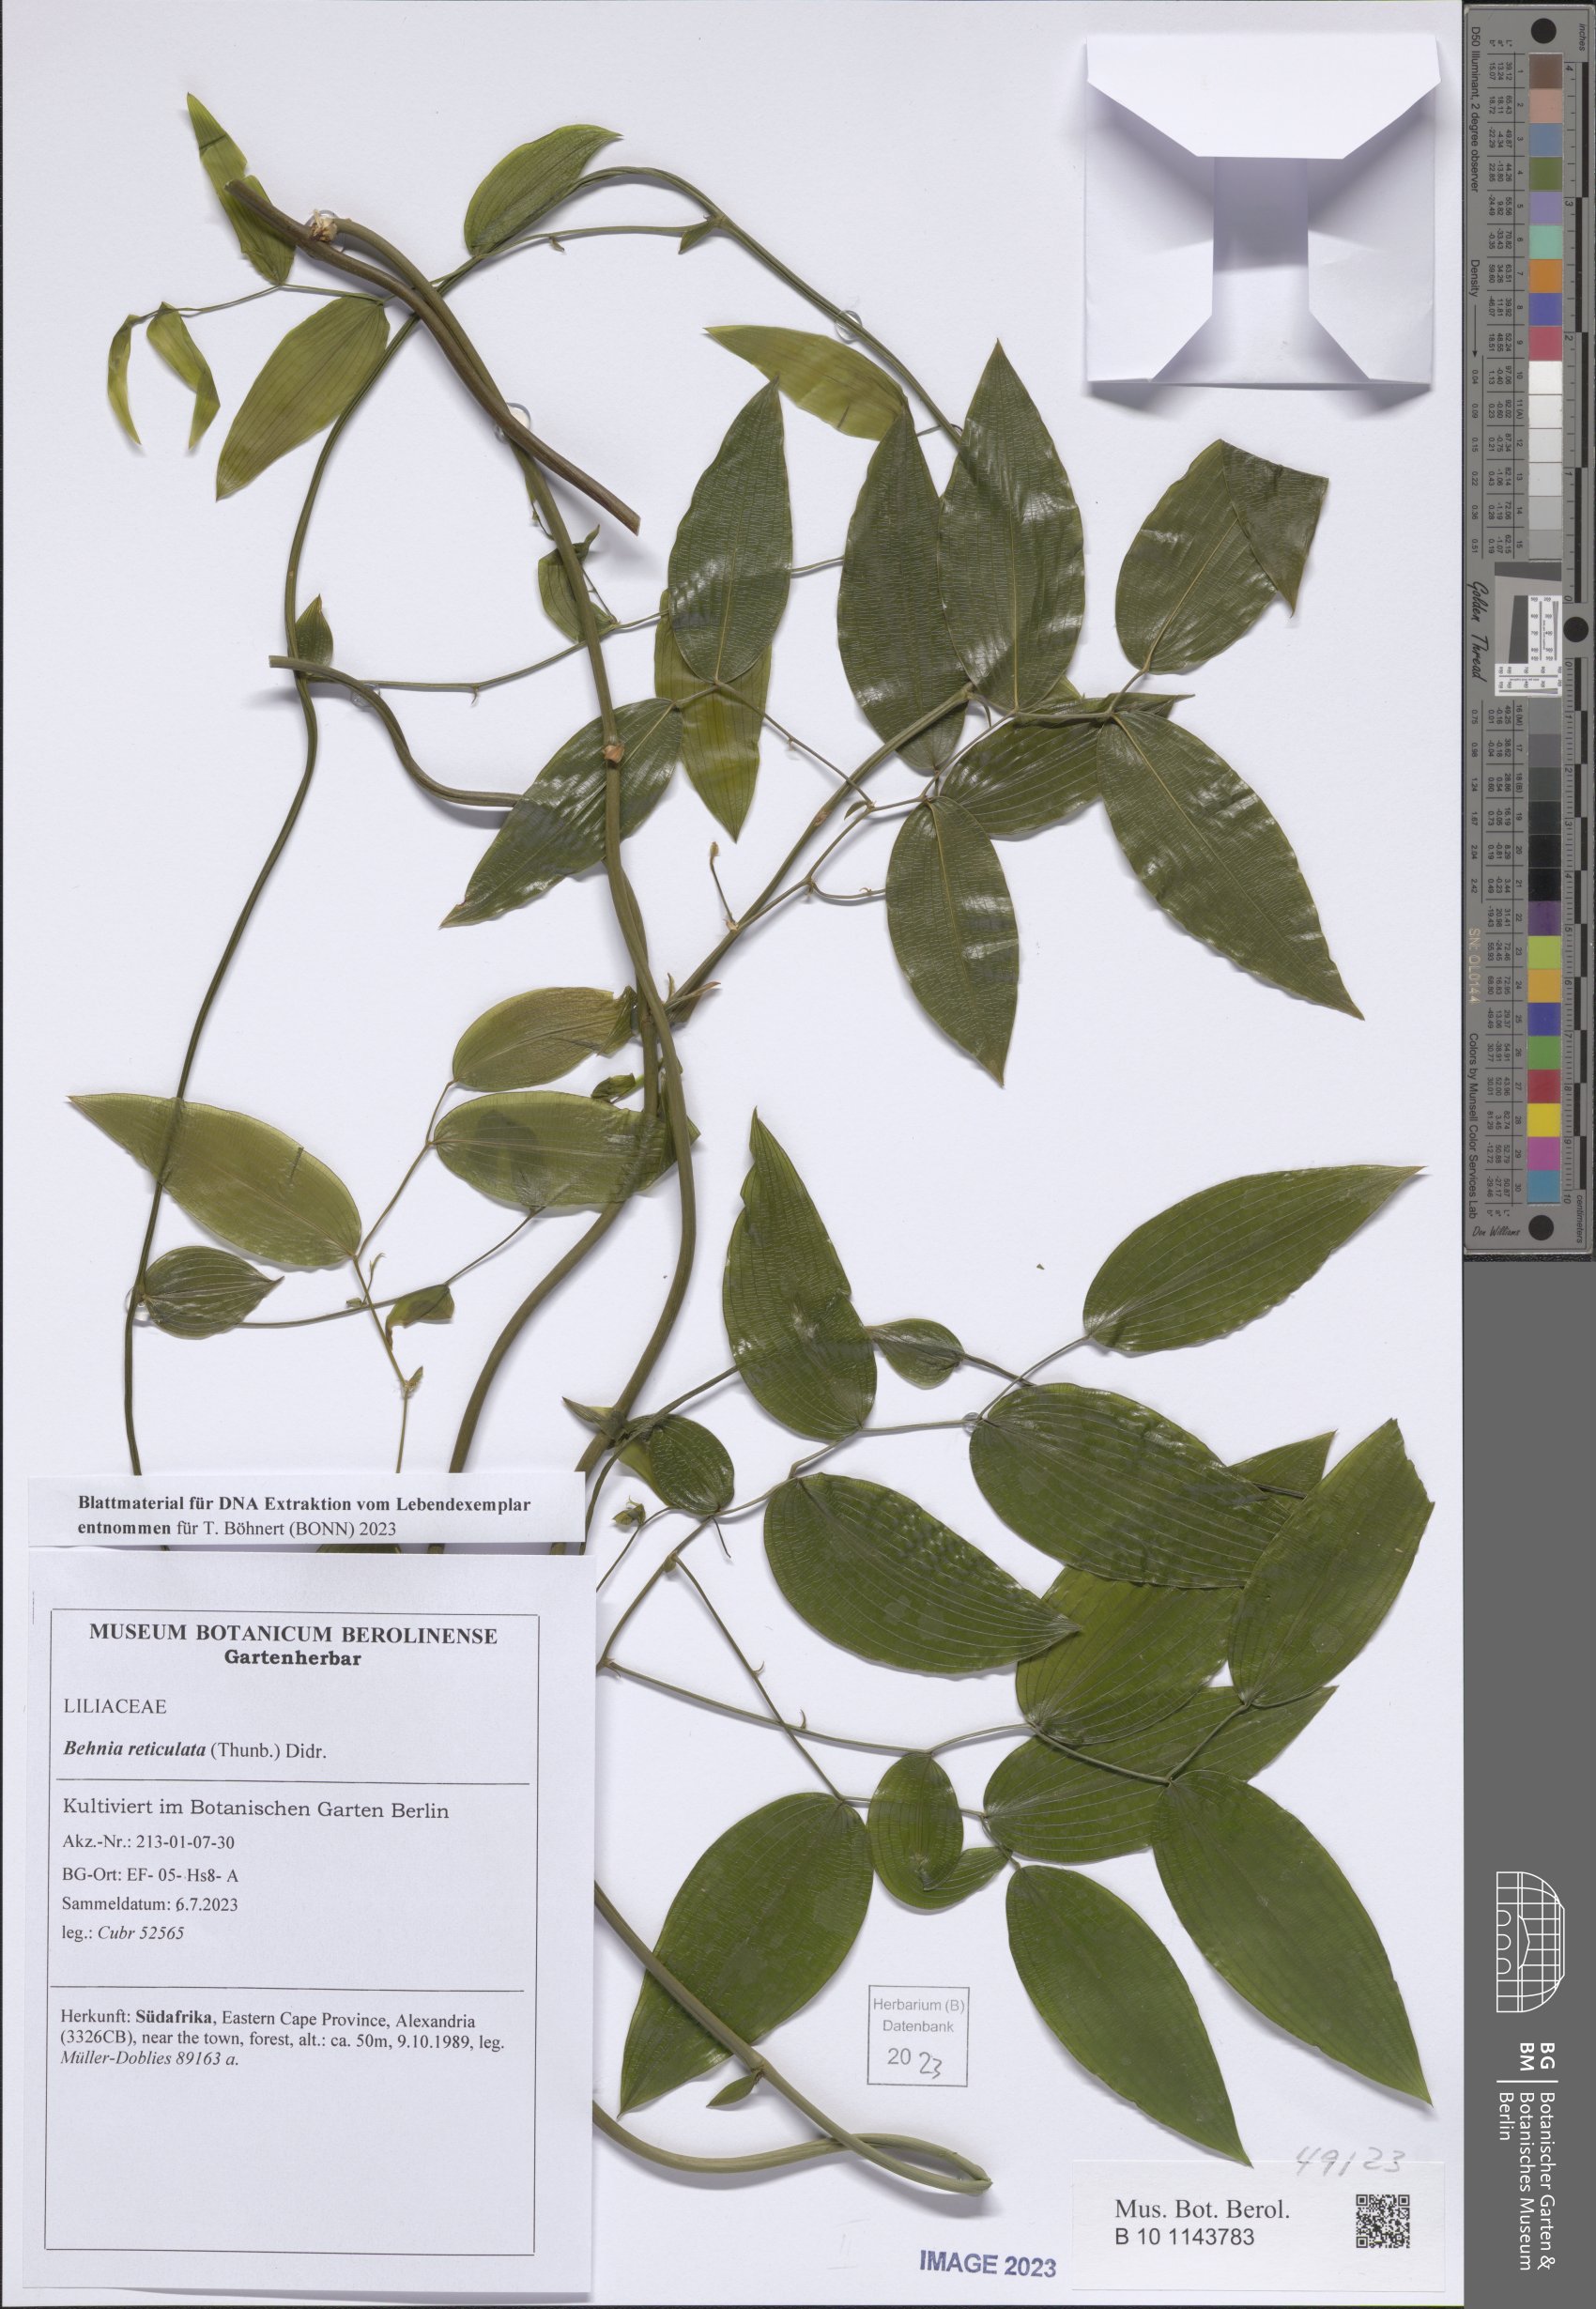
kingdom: Plantae
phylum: Tracheophyta
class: Liliopsida
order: Asparagales
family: Asparagaceae
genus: Behnia
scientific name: Behnia reticulata
